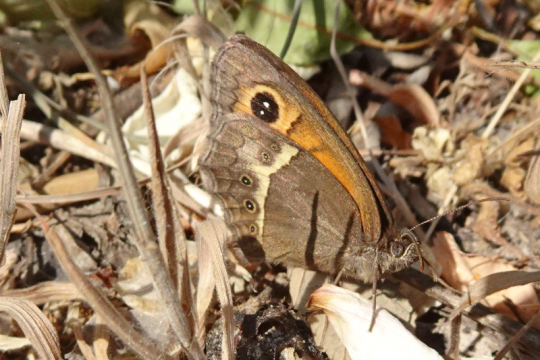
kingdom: Animalia
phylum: Arthropoda
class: Insecta
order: Lepidoptera
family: Nymphalidae
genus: Pyronia
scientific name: Pyronia bathseba
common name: Spanish Gatekeeper
